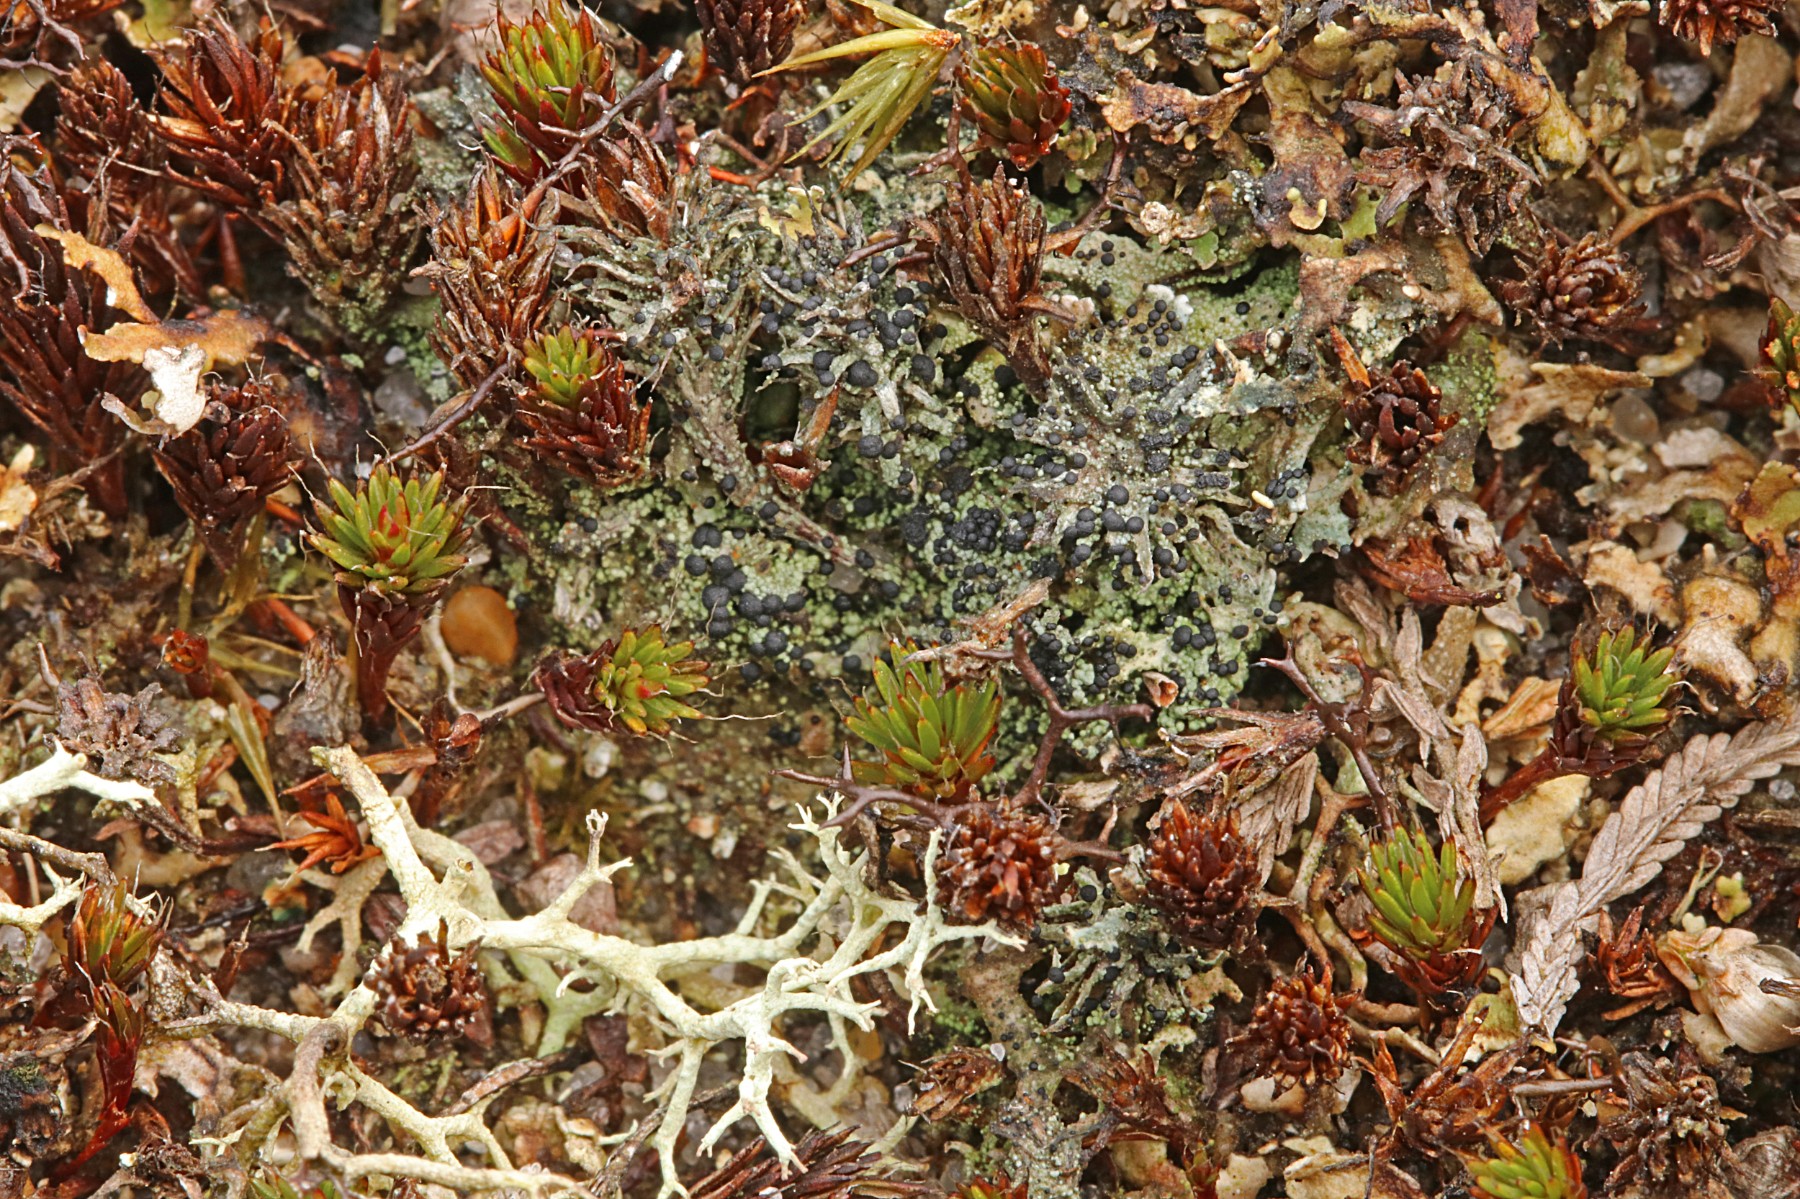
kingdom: Fungi
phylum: Ascomycota
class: Lecanoromycetes
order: Lecanorales
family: Byssolomataceae
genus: Micarea
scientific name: Micarea lignaria
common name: tørve-knaplav
